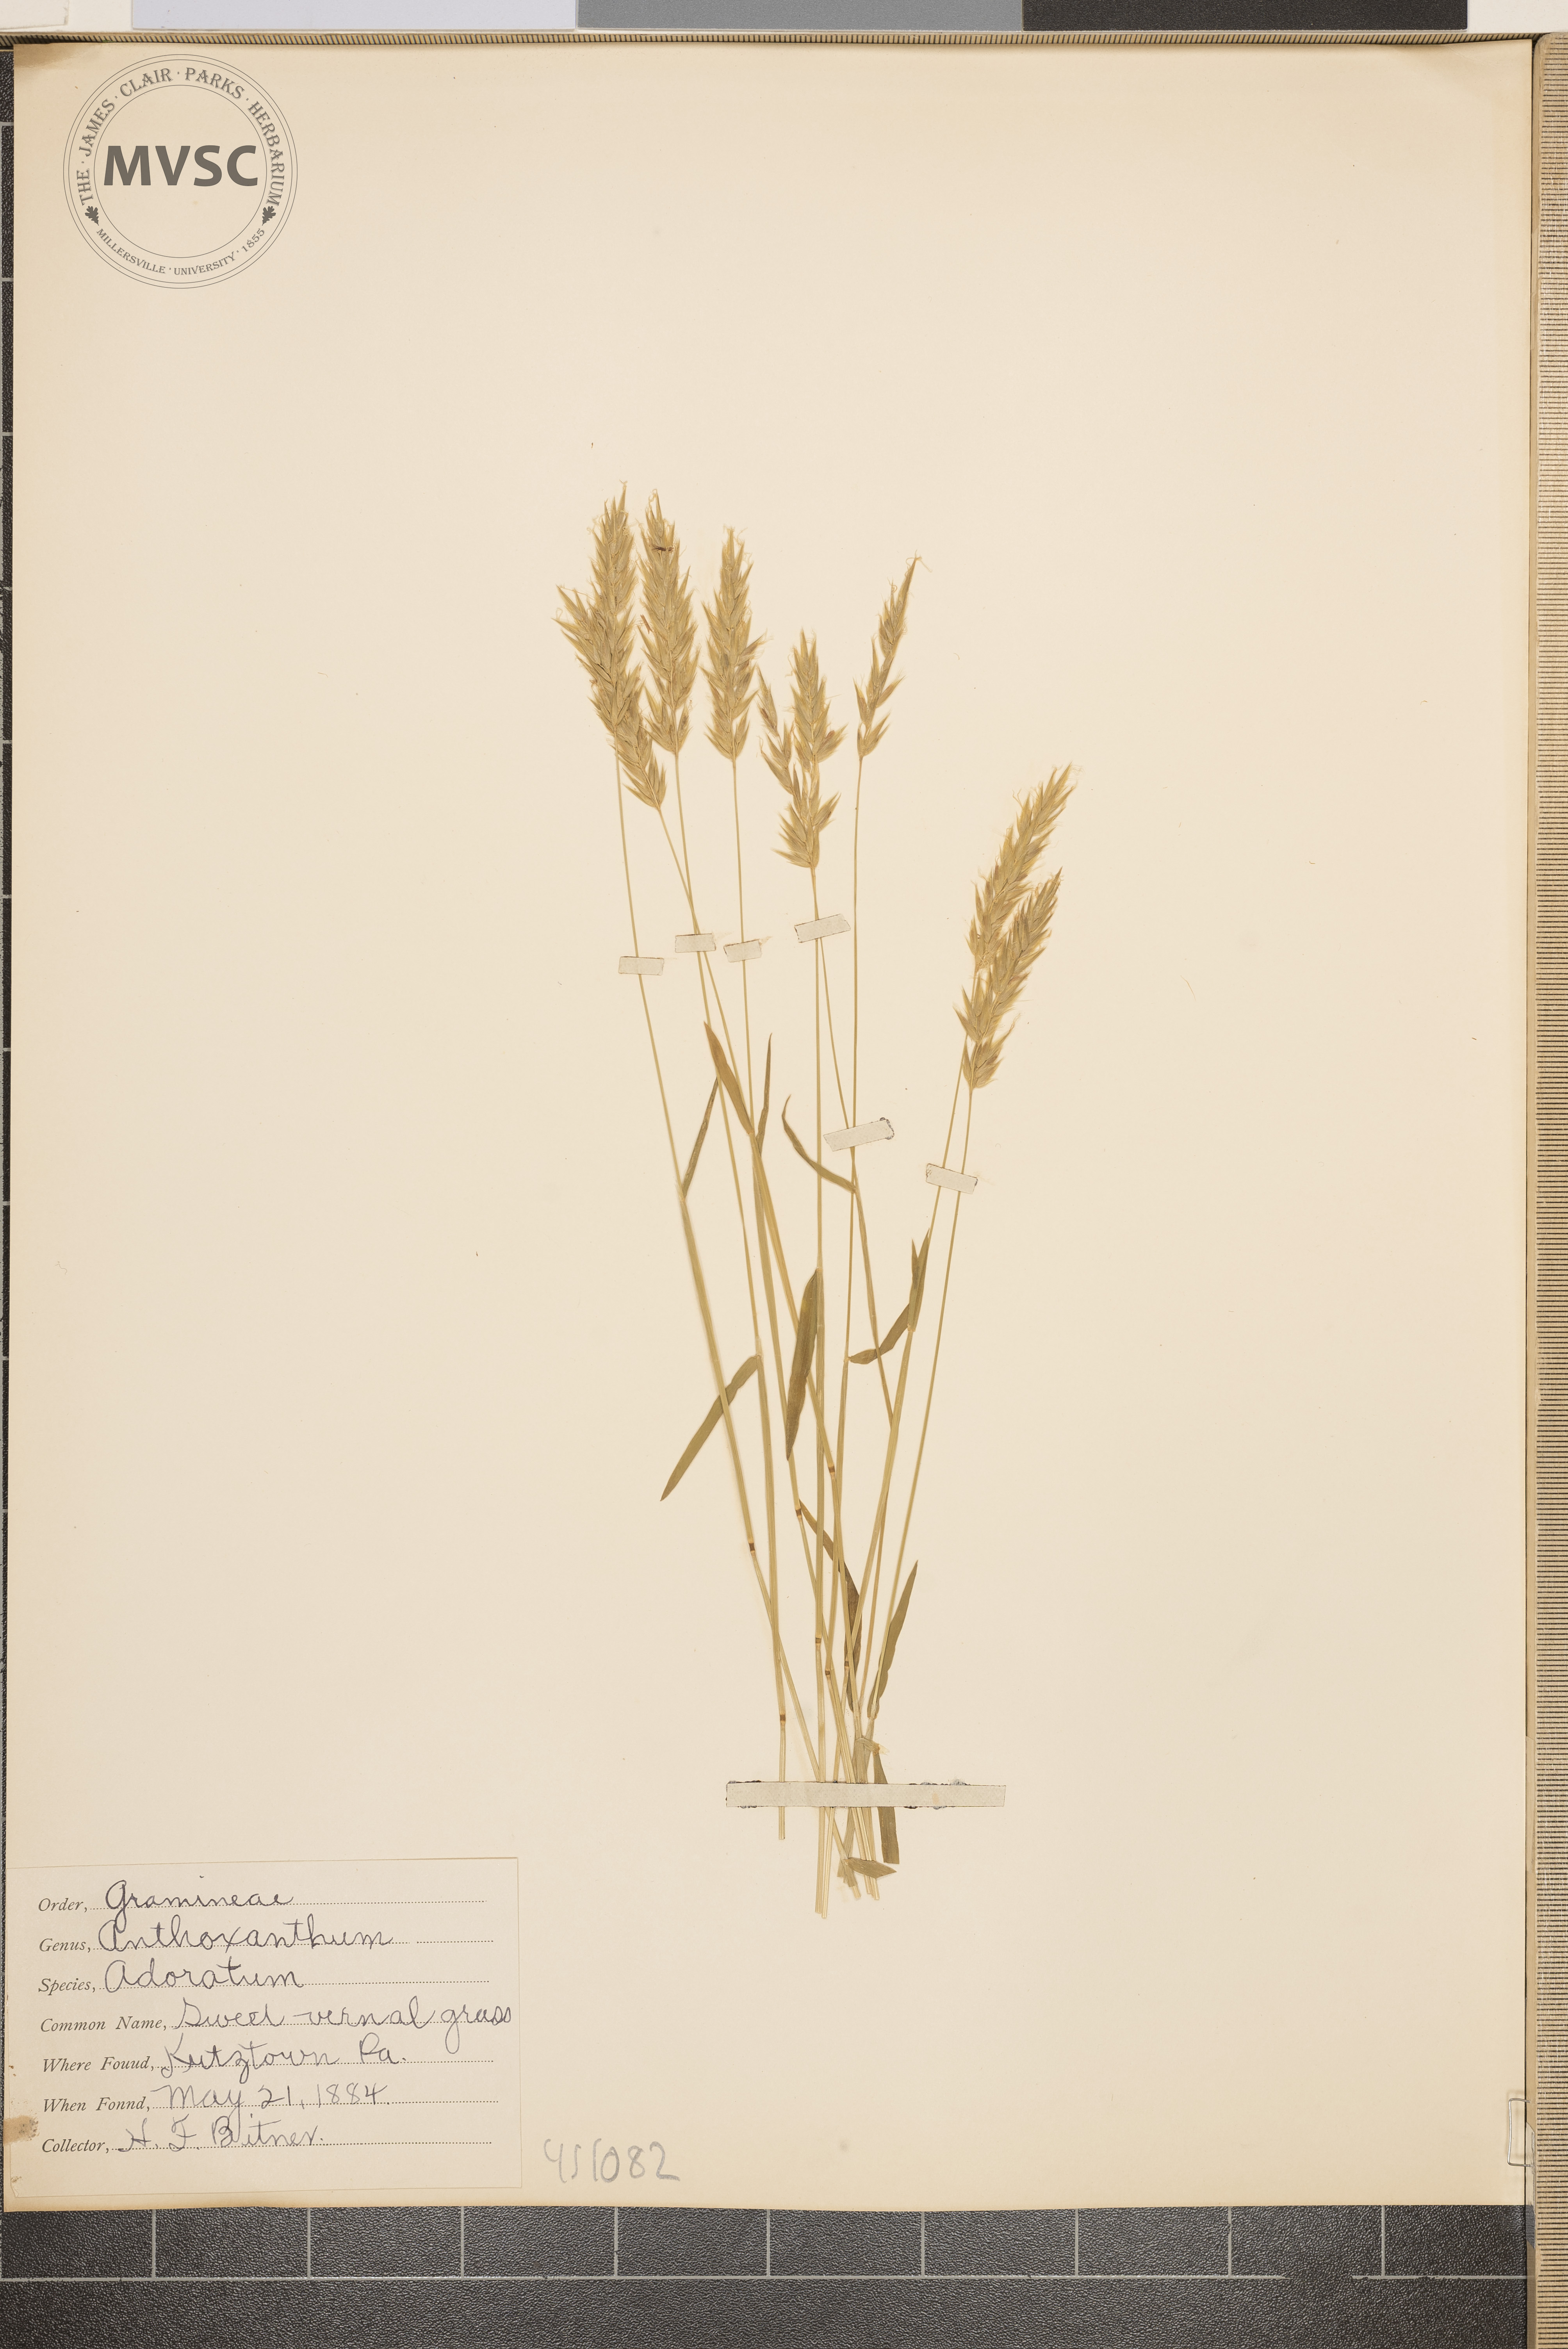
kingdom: Plantae
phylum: Tracheophyta
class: Liliopsida
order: Poales
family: Poaceae
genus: Anthoxanthum
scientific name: Anthoxanthum odoratum
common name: Sweet vernal grass
